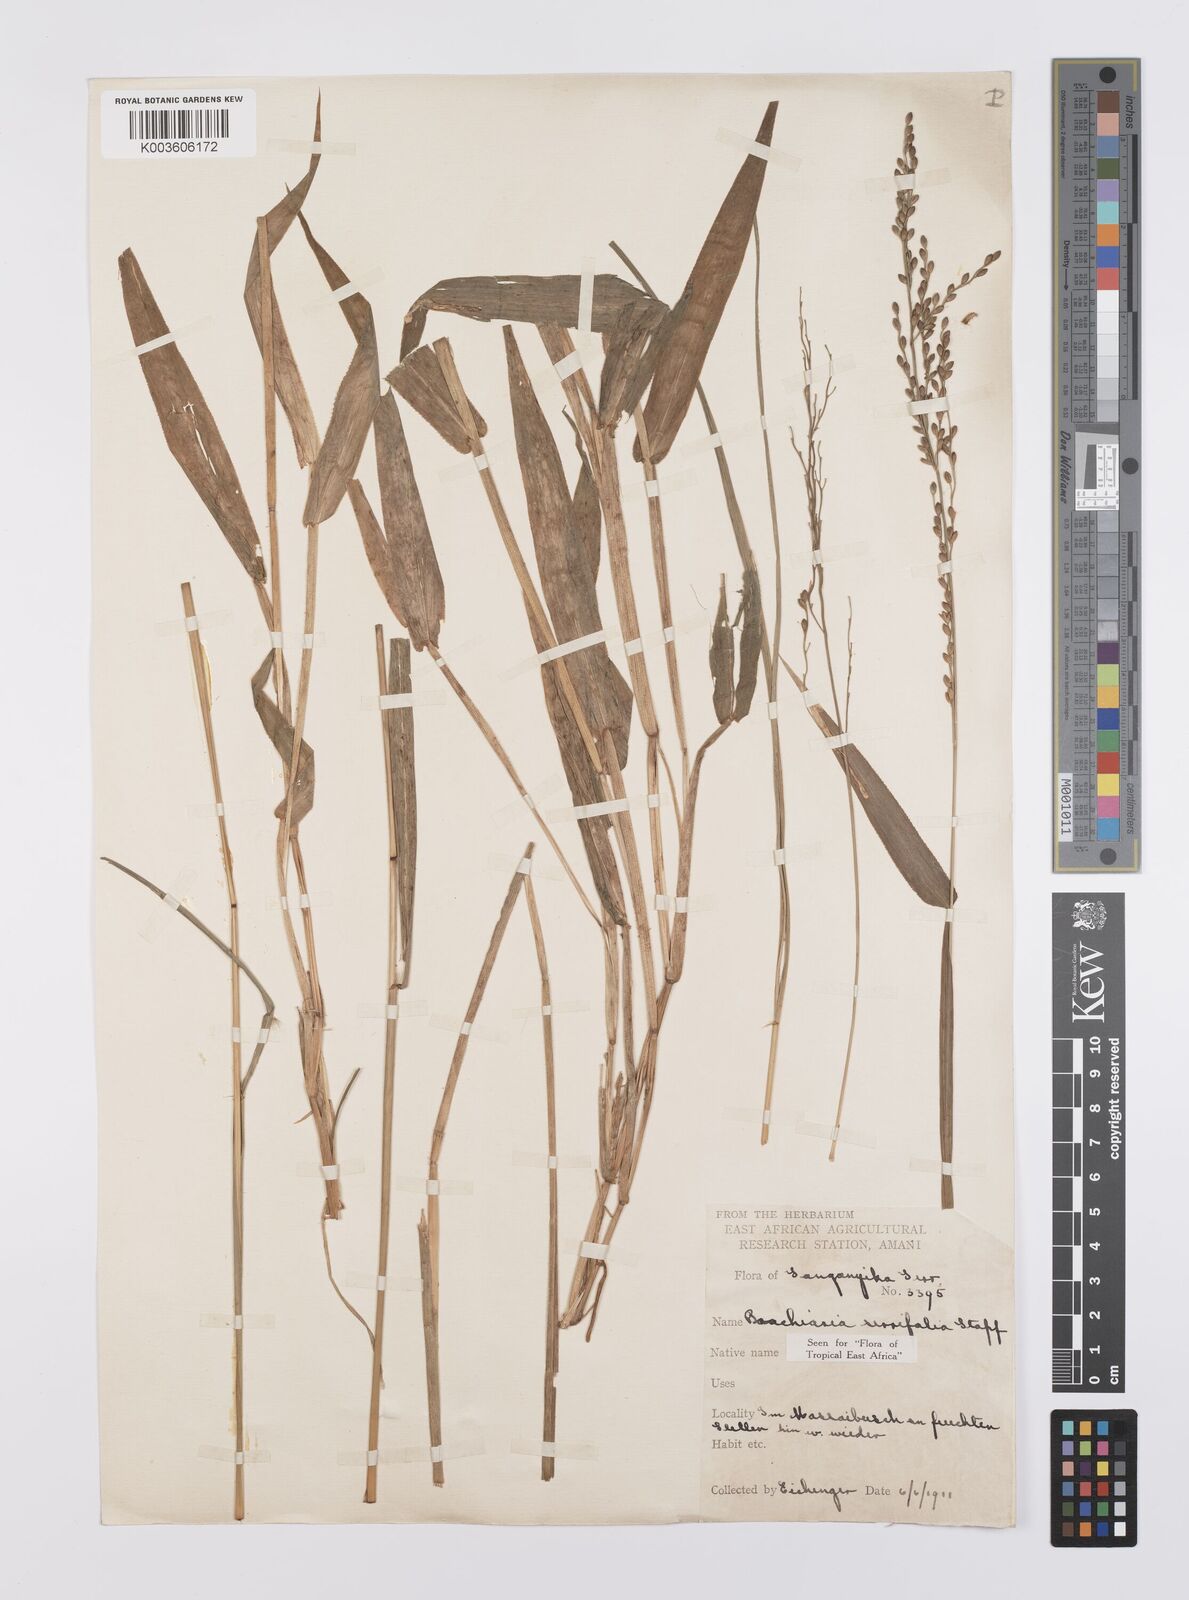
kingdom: Plantae
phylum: Tracheophyta
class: Liliopsida
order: Poales
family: Poaceae
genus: Urochloa
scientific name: Urochloa serrifolia
